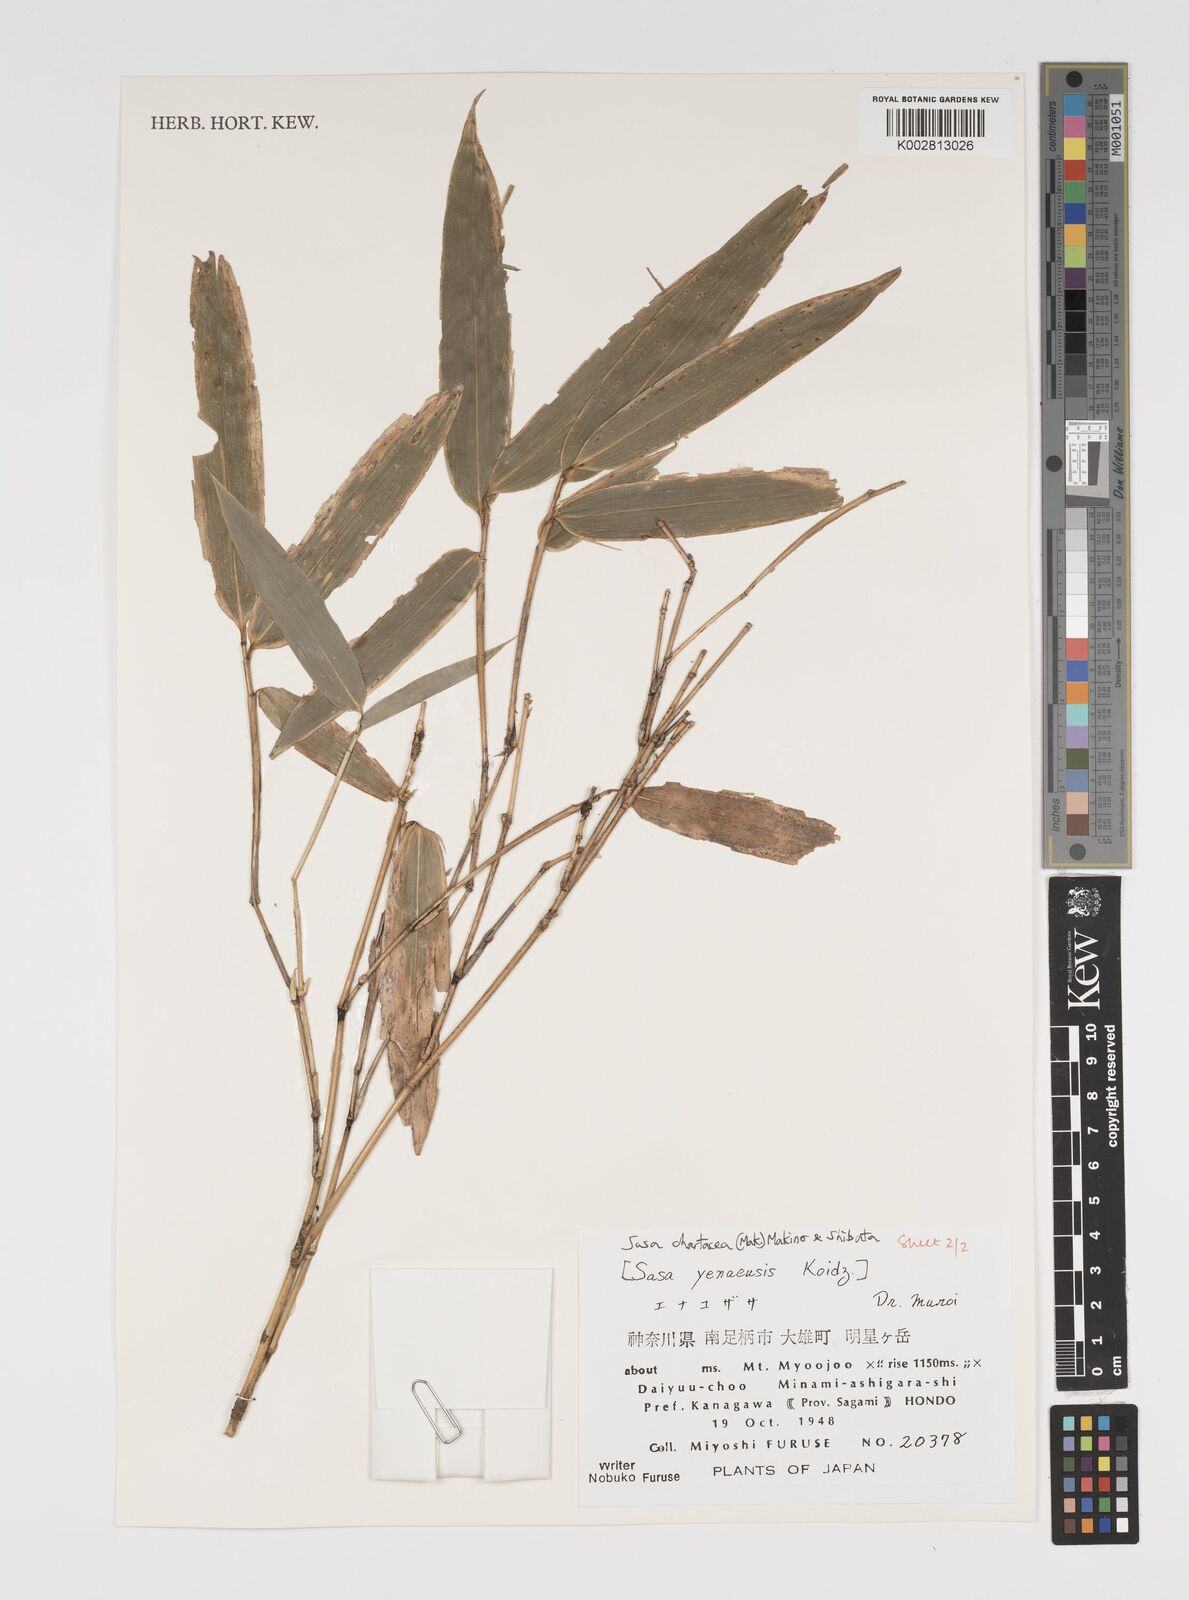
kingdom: Plantae
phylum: Tracheophyta
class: Liliopsida
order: Poales
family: Poaceae
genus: Sasa
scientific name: Sasa chartacea
